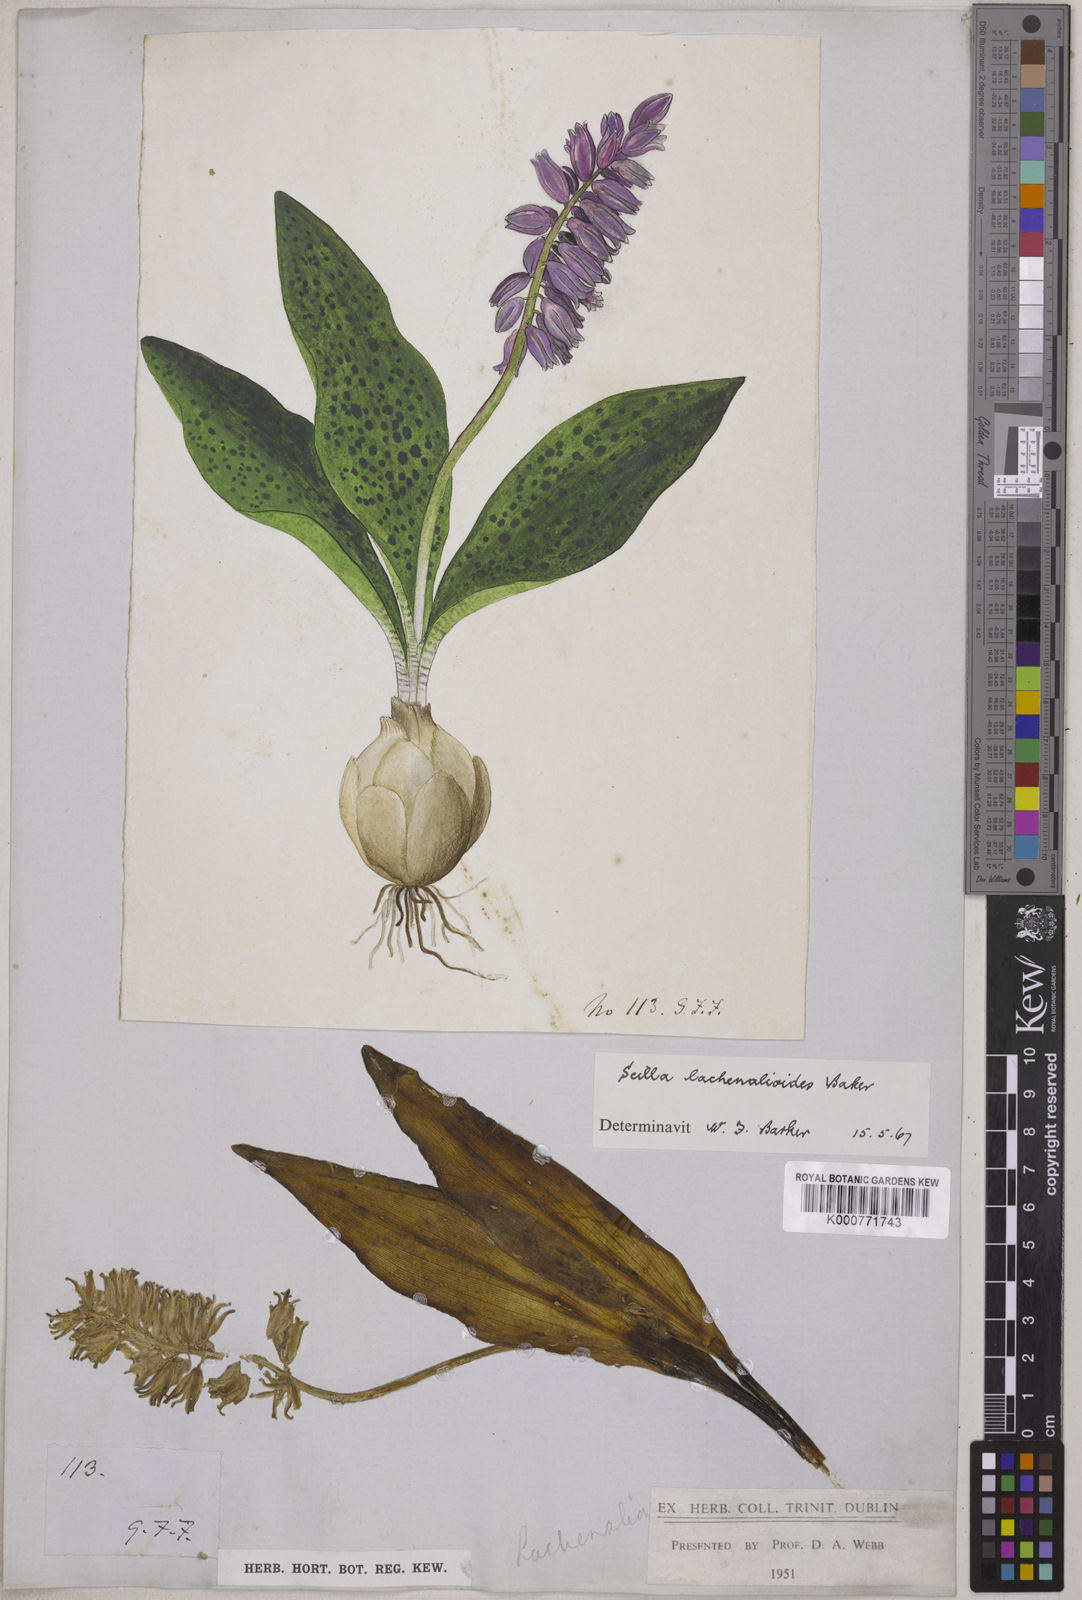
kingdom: Plantae
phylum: Tracheophyta
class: Liliopsida
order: Asparagales
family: Asparagaceae
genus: Resnova
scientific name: Resnova lachenalioides
